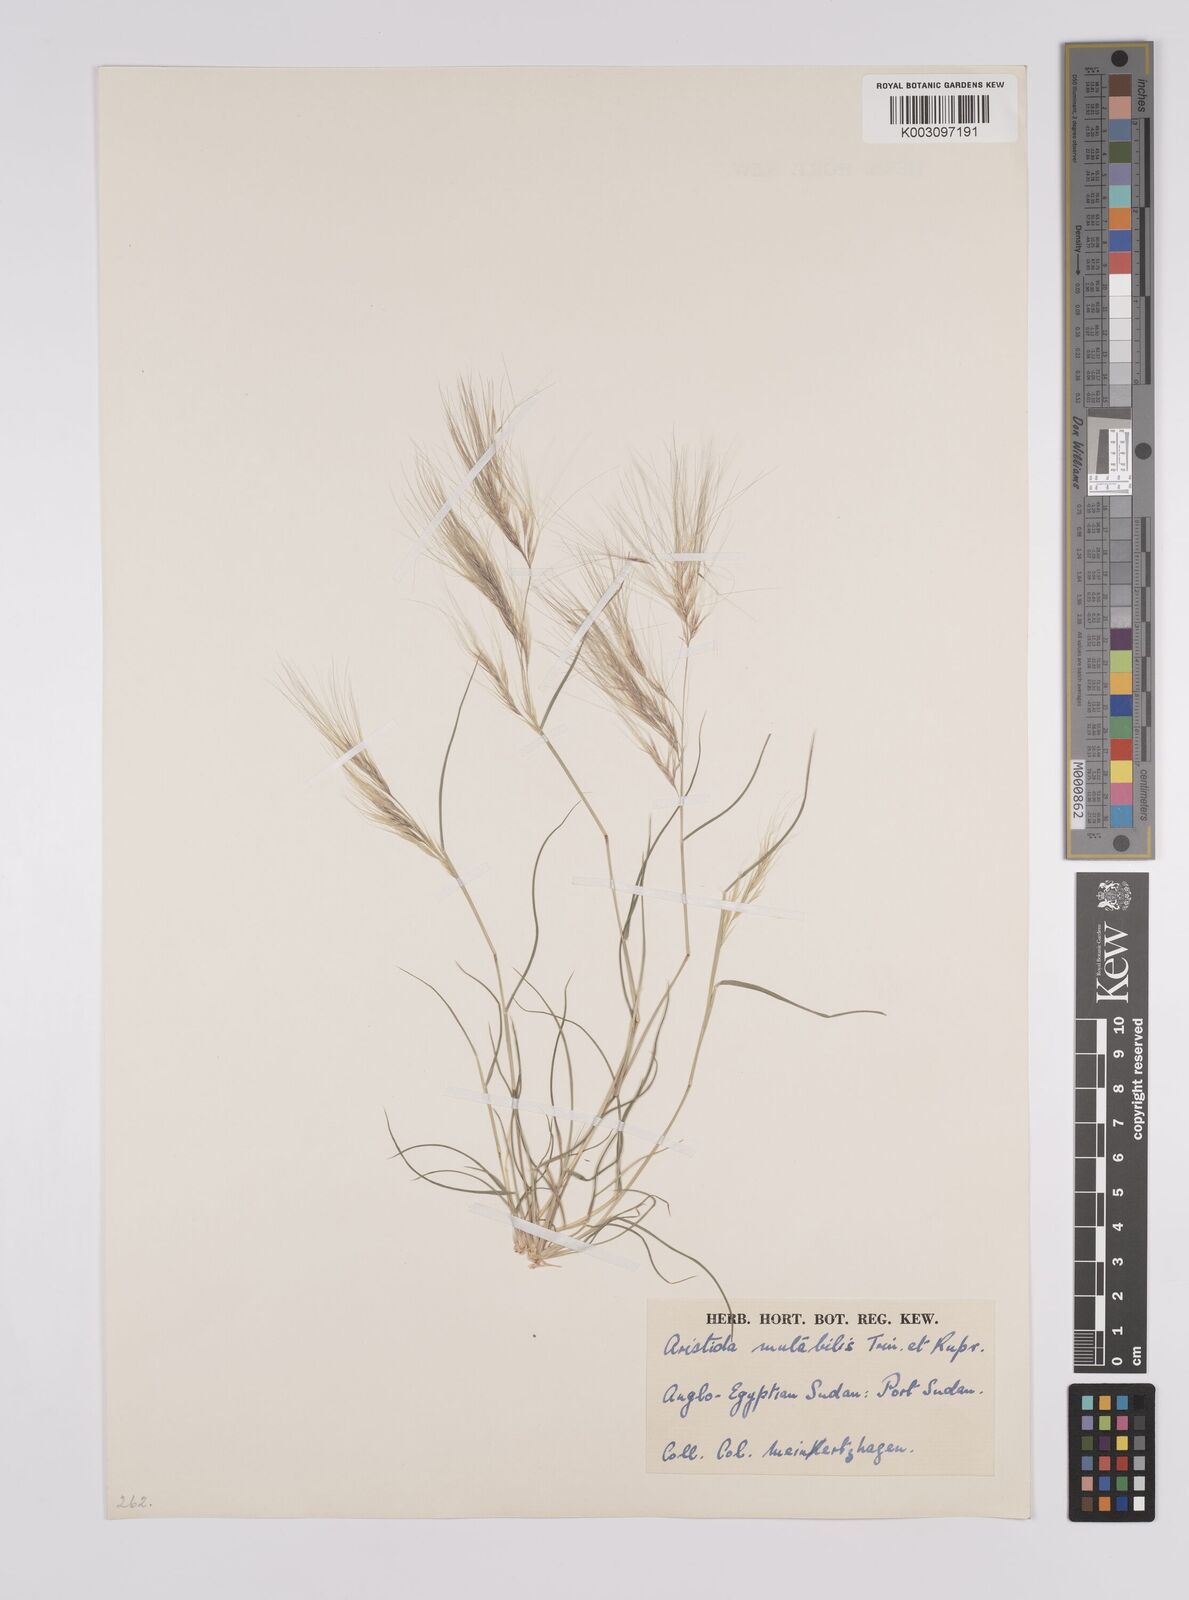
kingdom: Plantae
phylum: Tracheophyta
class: Liliopsida
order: Poales
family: Poaceae
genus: Aristida
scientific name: Aristida mutabilis
